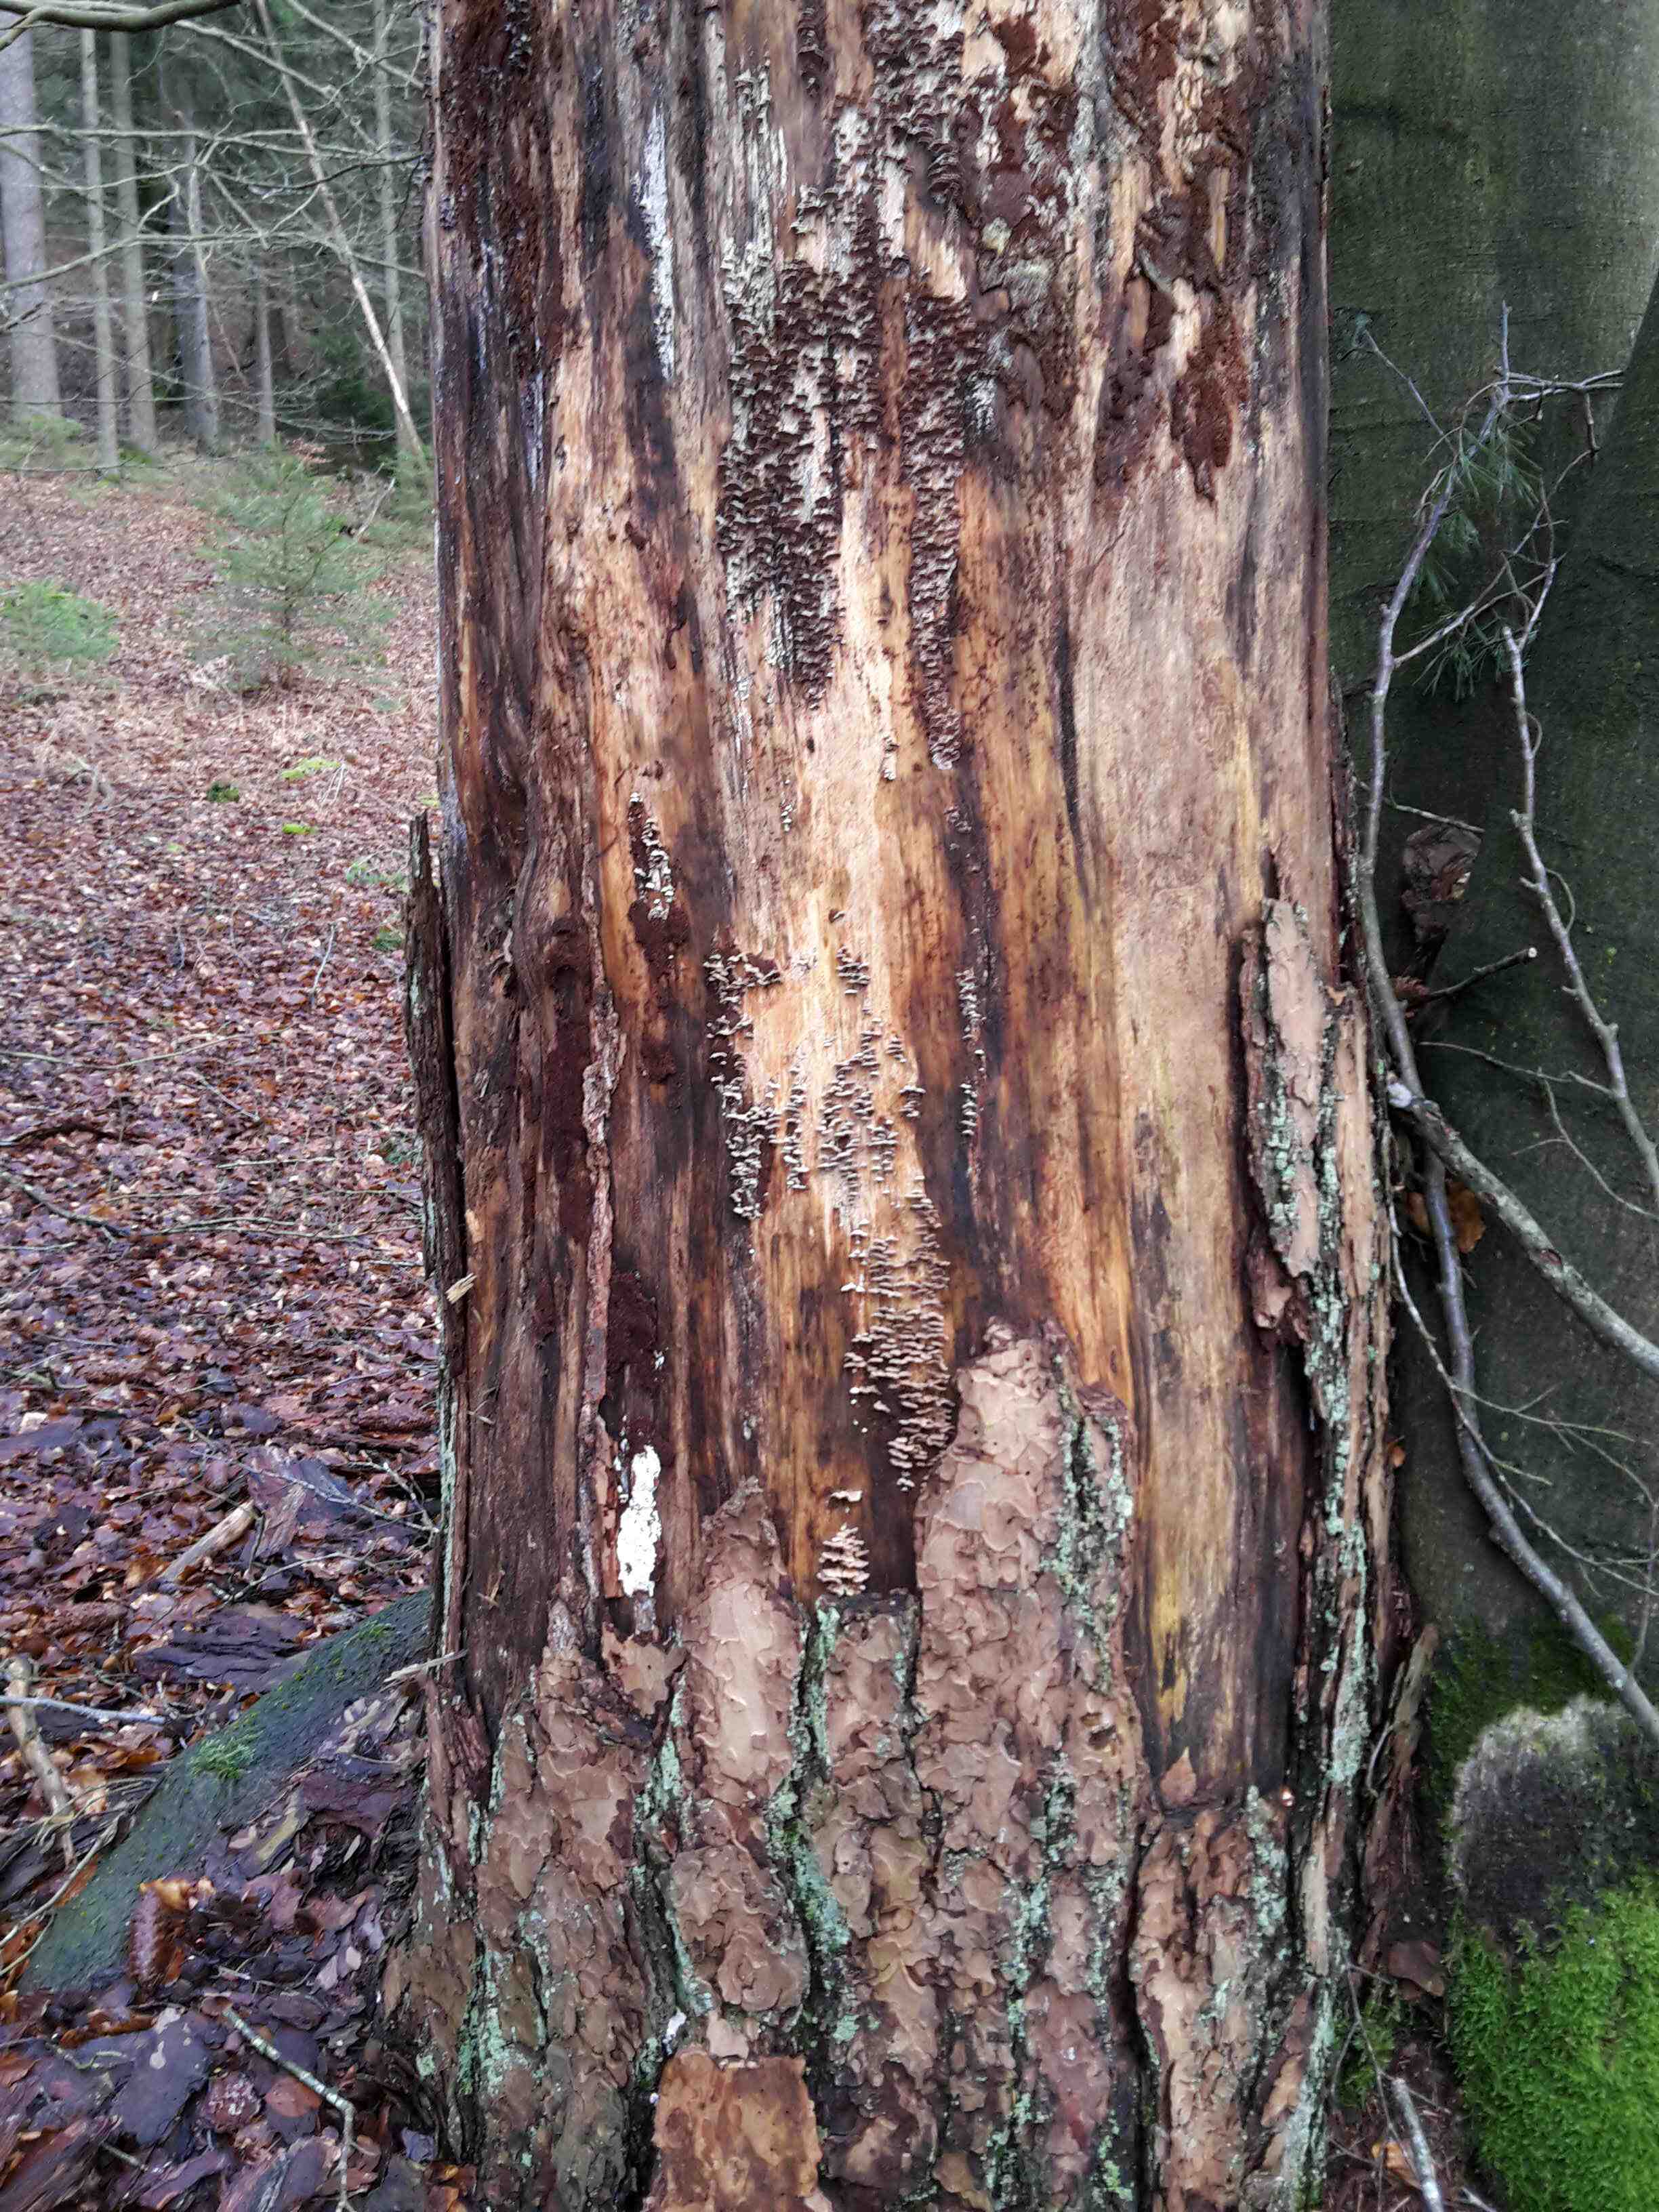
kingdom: Fungi
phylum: Basidiomycota
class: Agaricomycetes
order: Hymenochaetales
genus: Trichaptum
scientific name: Trichaptum abietinum
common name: almindelig violporesvamp
